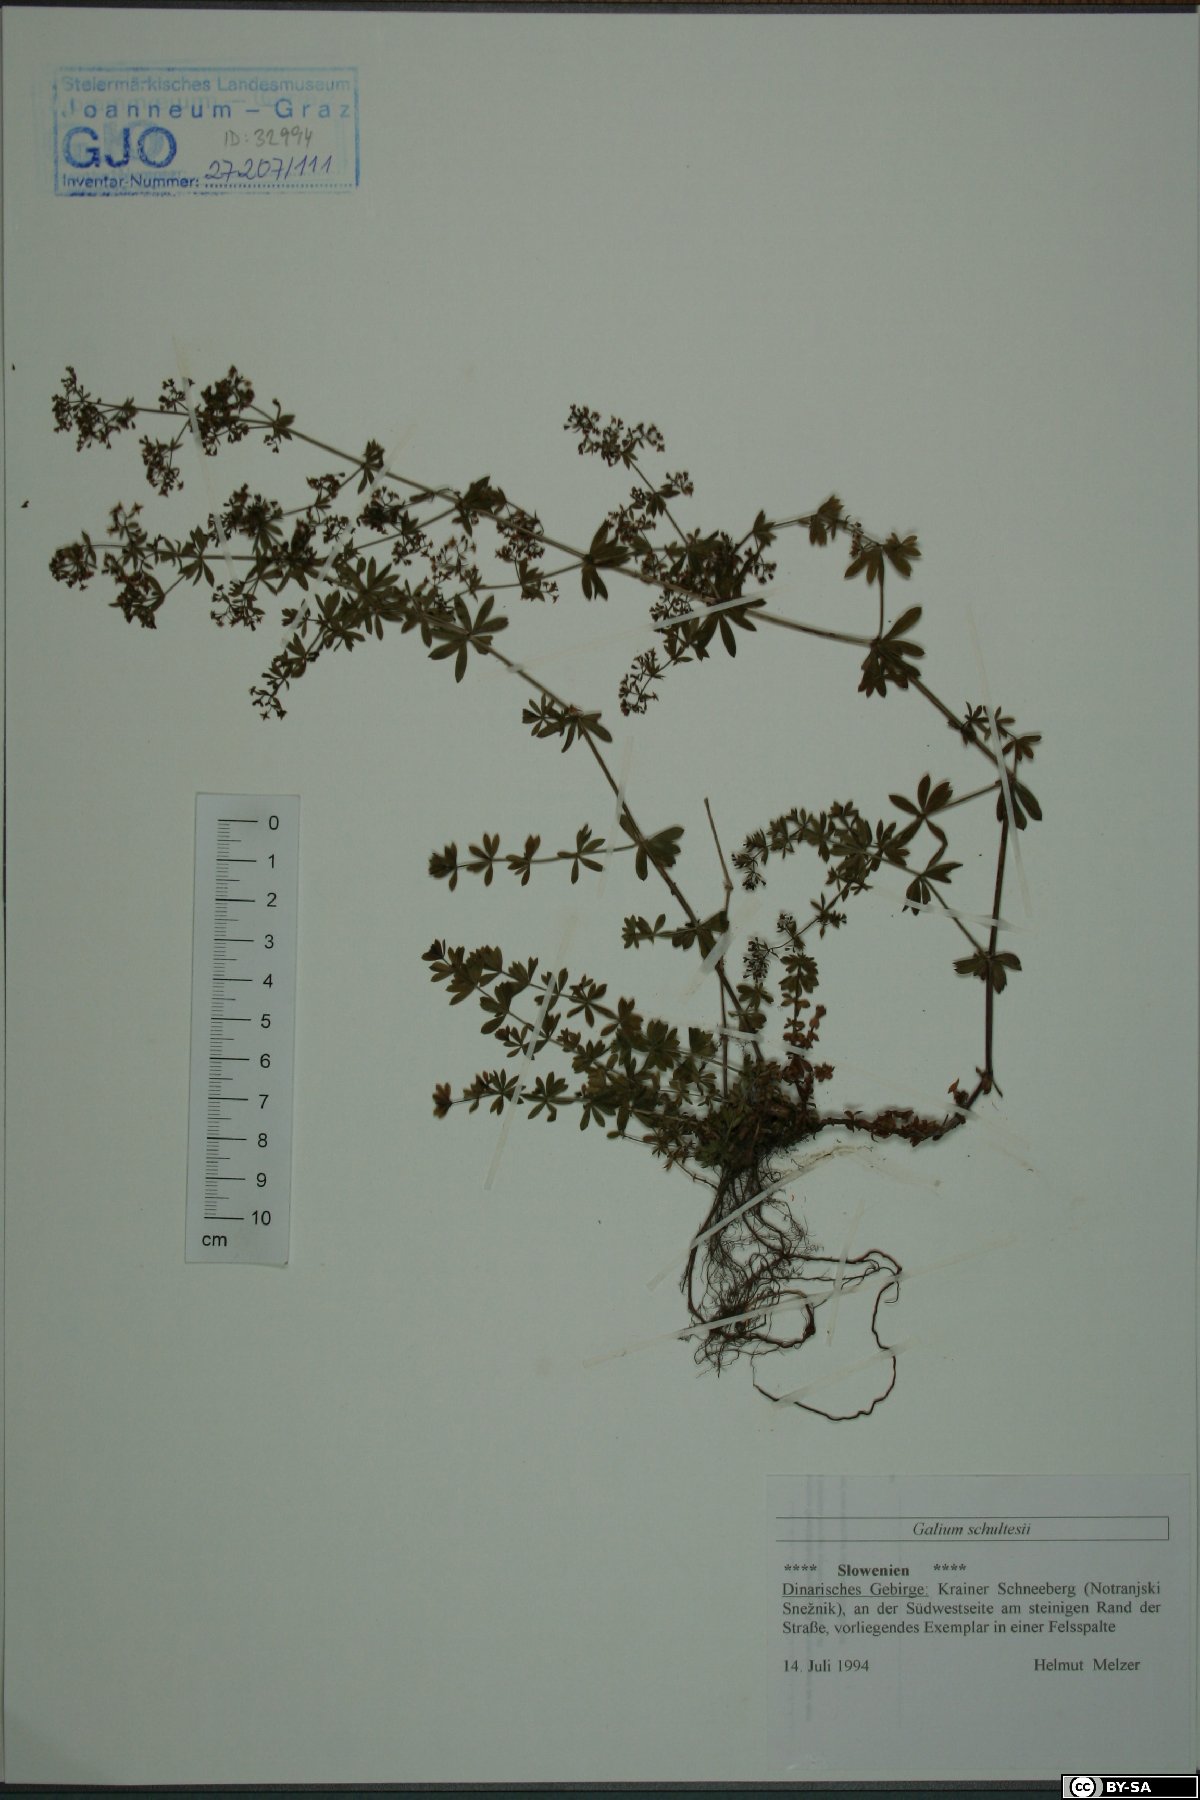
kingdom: Plantae
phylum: Tracheophyta
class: Magnoliopsida
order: Gentianales
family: Rubiaceae
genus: Galium
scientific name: Galium intermedium
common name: Bedstraw
